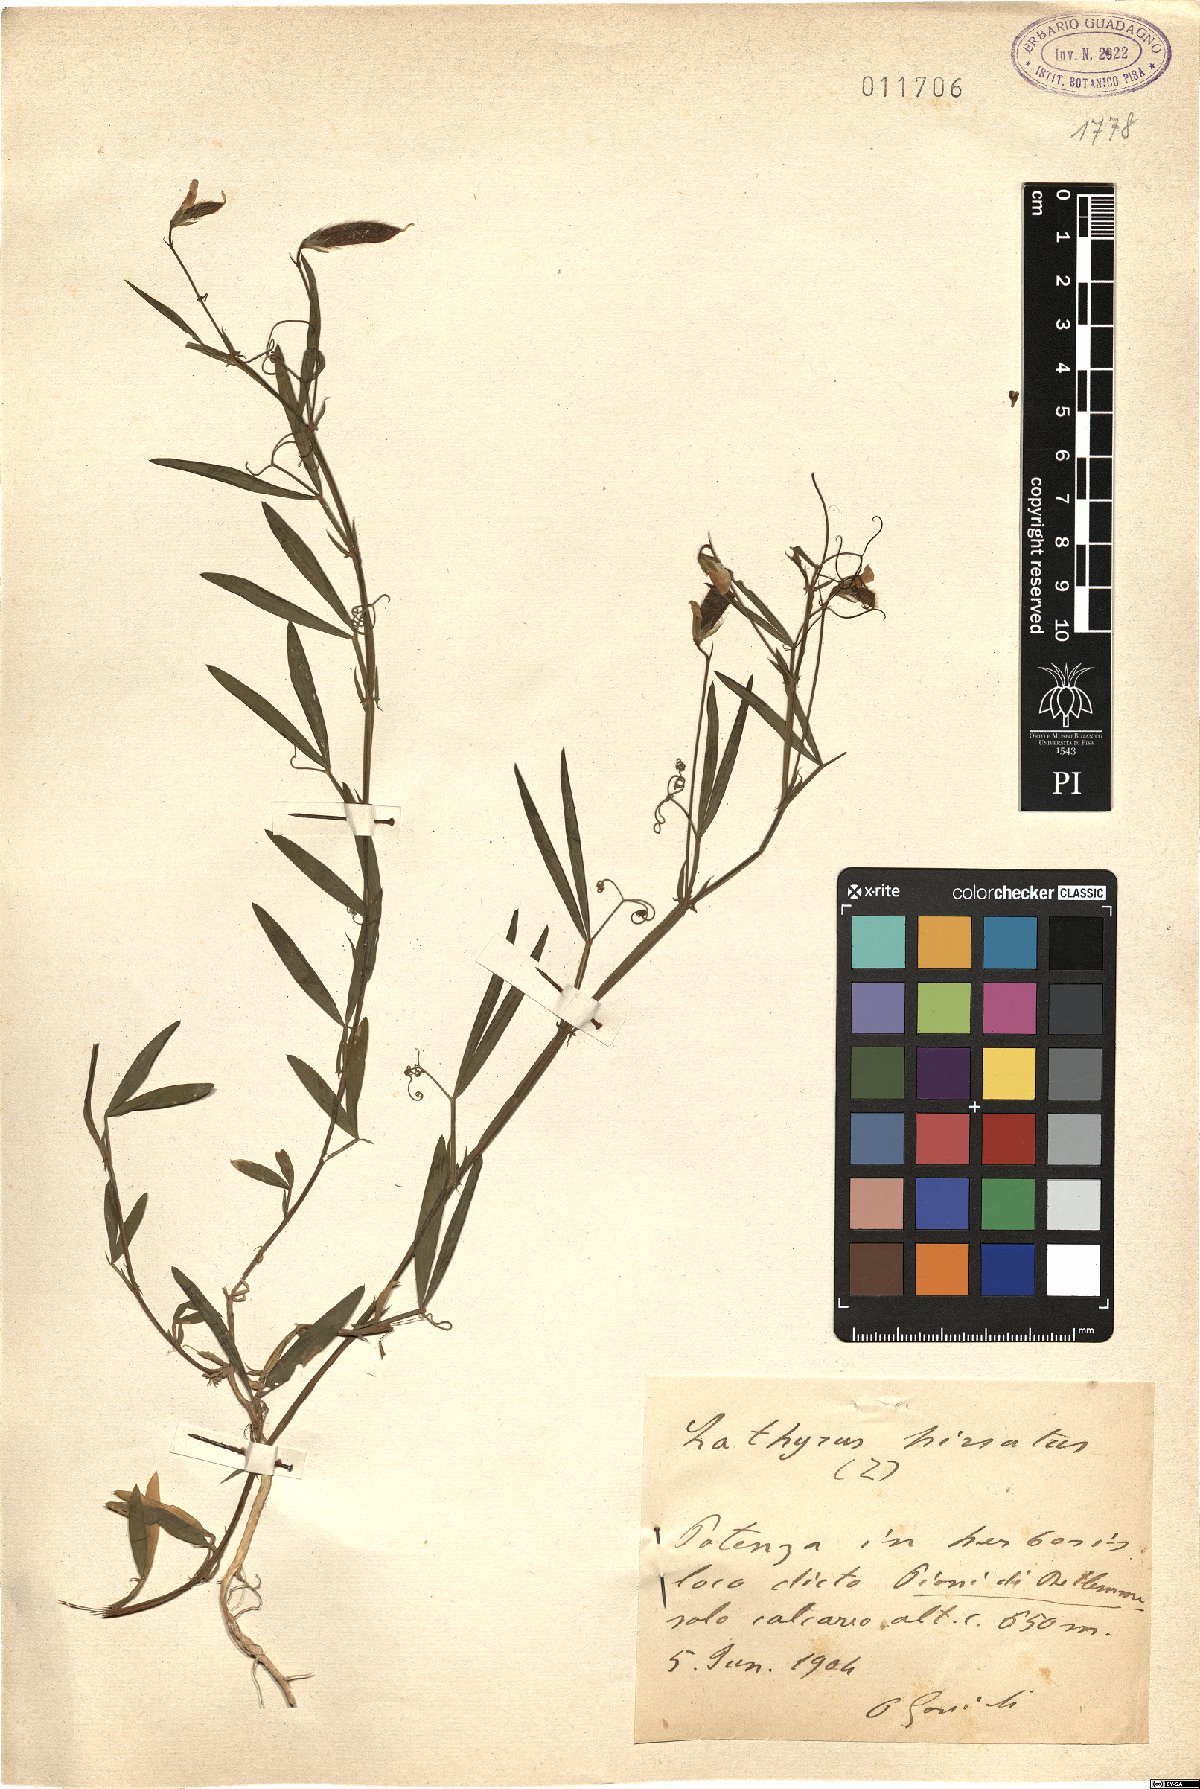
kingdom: Plantae
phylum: Tracheophyta
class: Magnoliopsida
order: Fabales
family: Fabaceae
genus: Lathyrus
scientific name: Lathyrus hirsutus
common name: Hairy vetchling
